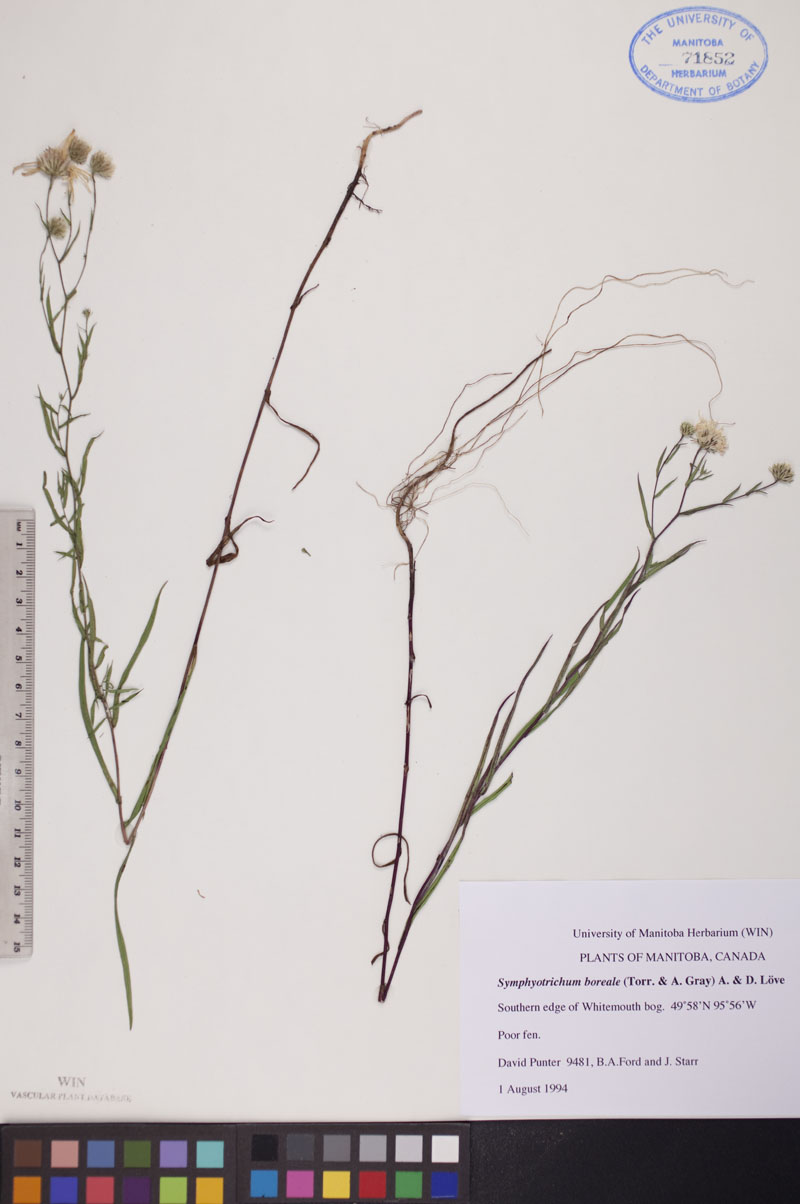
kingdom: Plantae
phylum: Tracheophyta
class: Magnoliopsida
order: Asterales
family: Asteraceae
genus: Symphyotrichum
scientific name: Symphyotrichum boreale
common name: Northern bog aster
